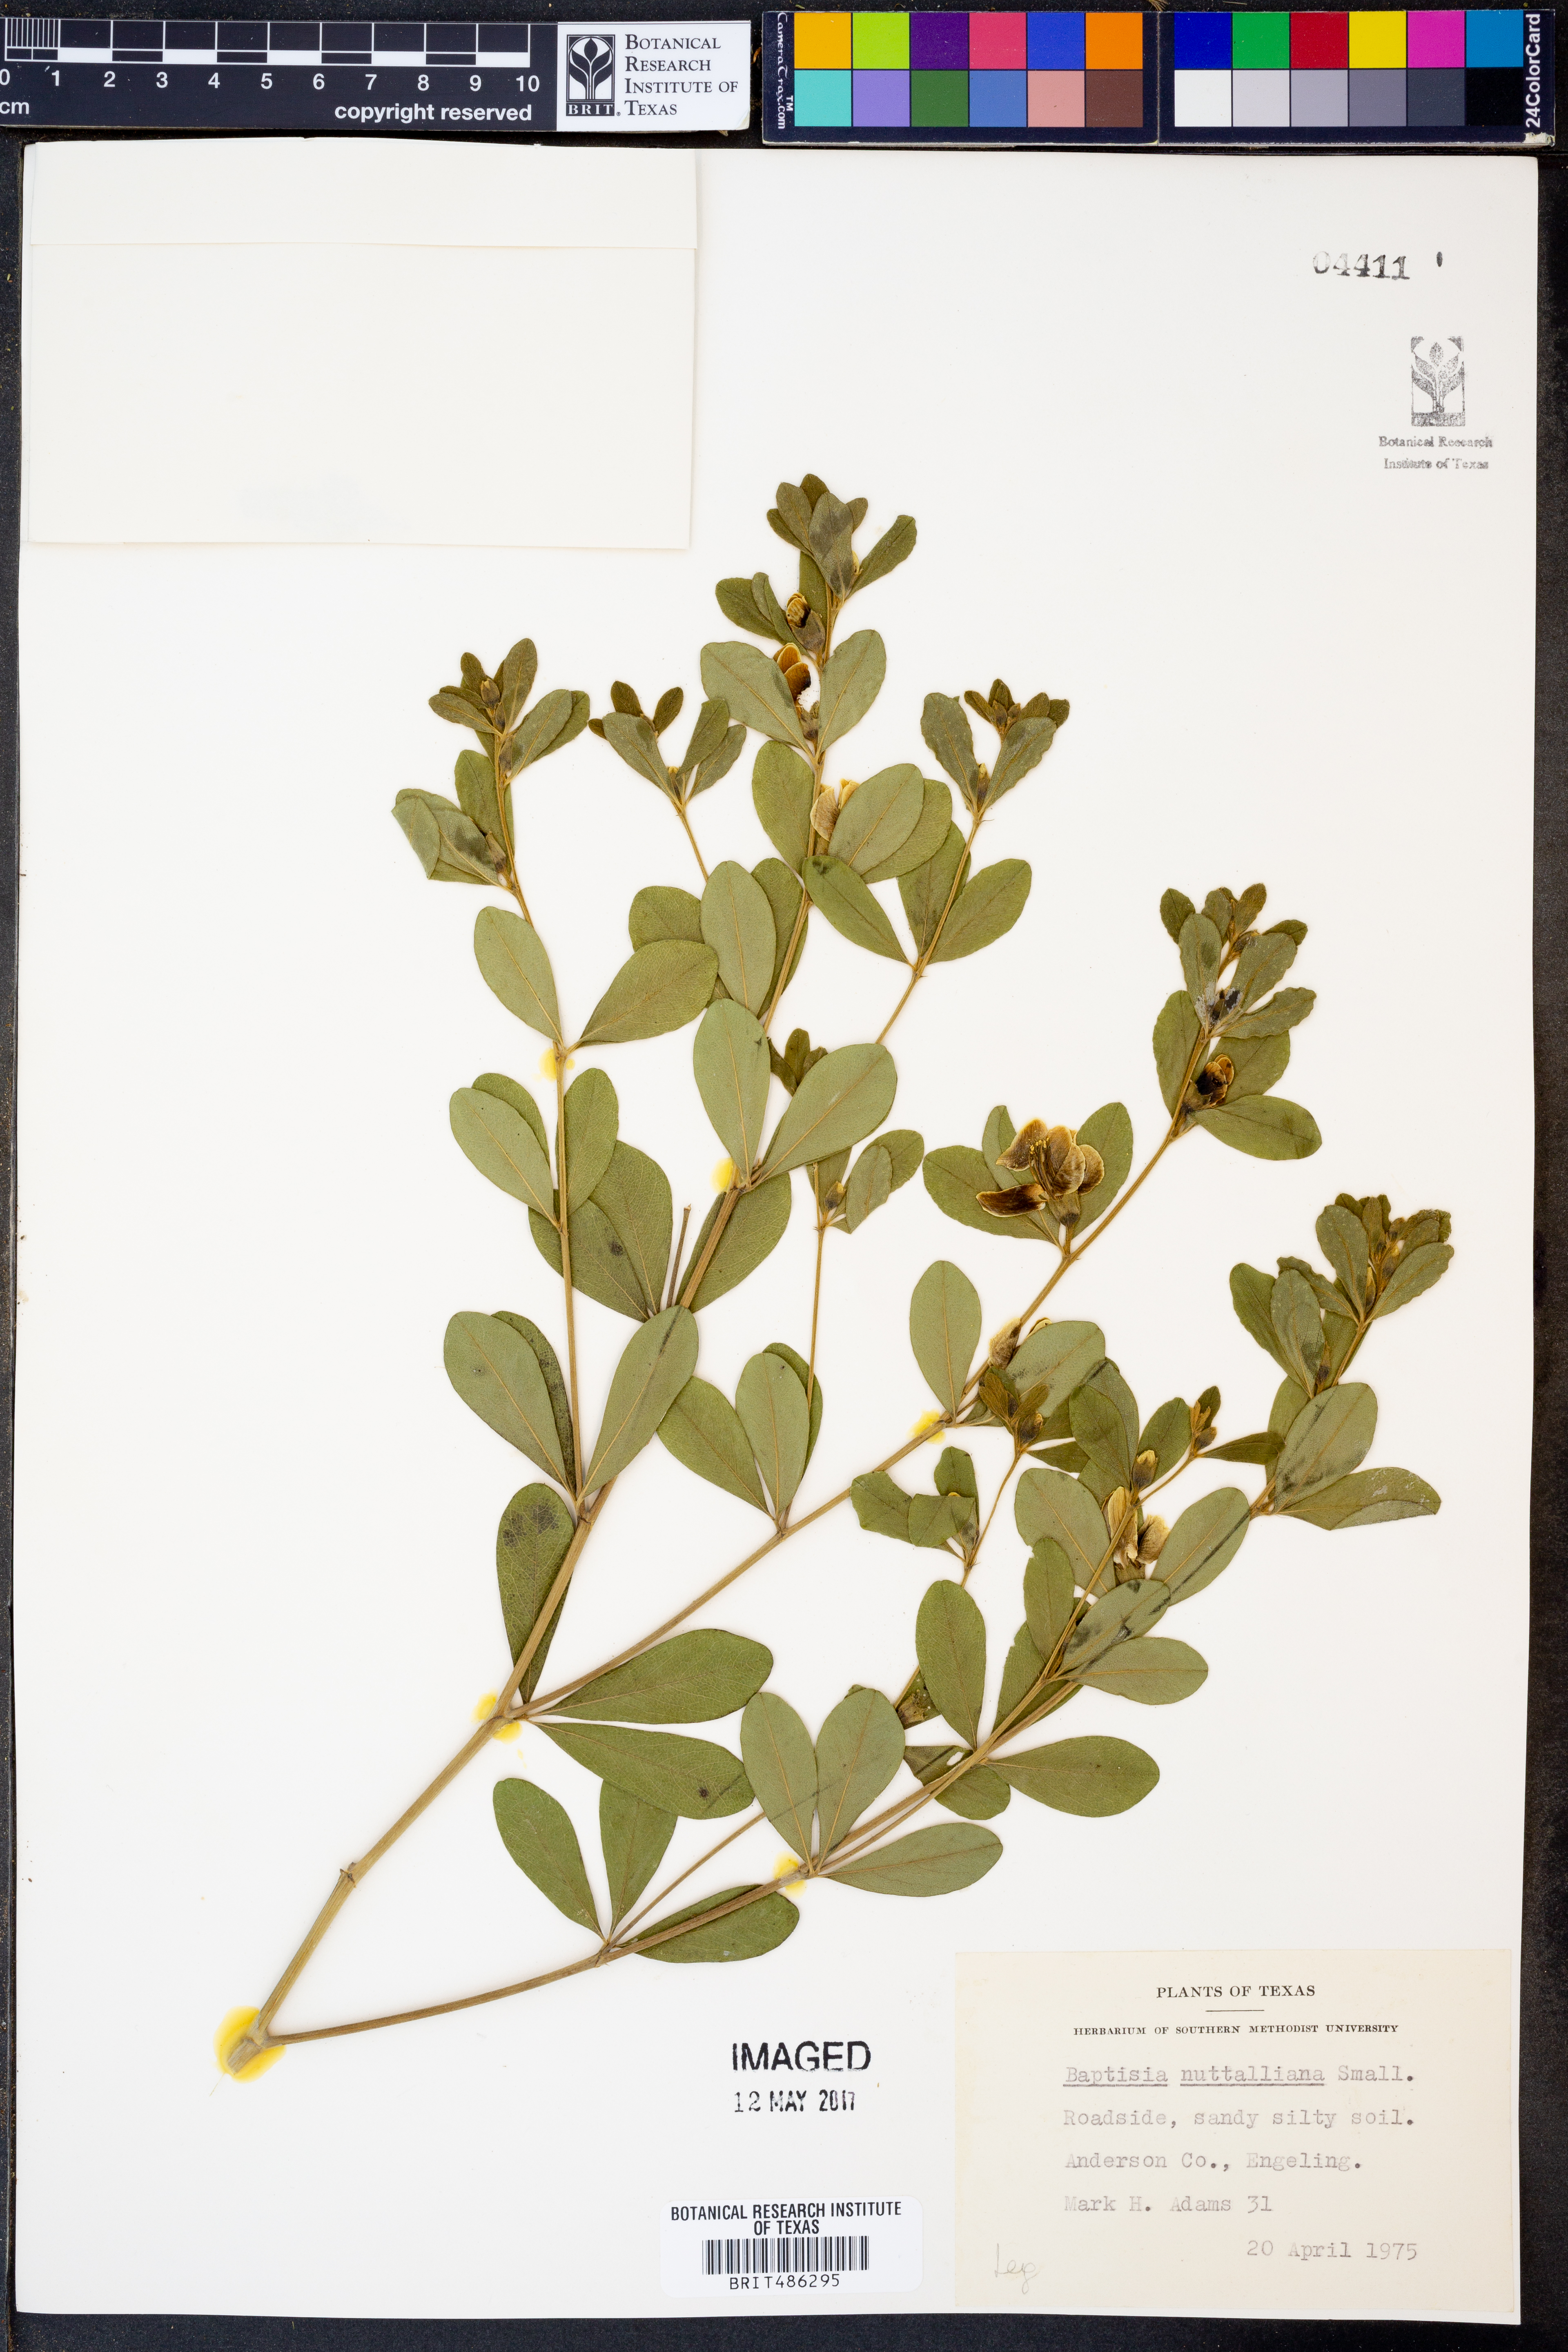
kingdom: Plantae
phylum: Tracheophyta
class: Magnoliopsida
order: Fabales
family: Fabaceae
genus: Baptisia
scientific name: Baptisia nuttalliana
